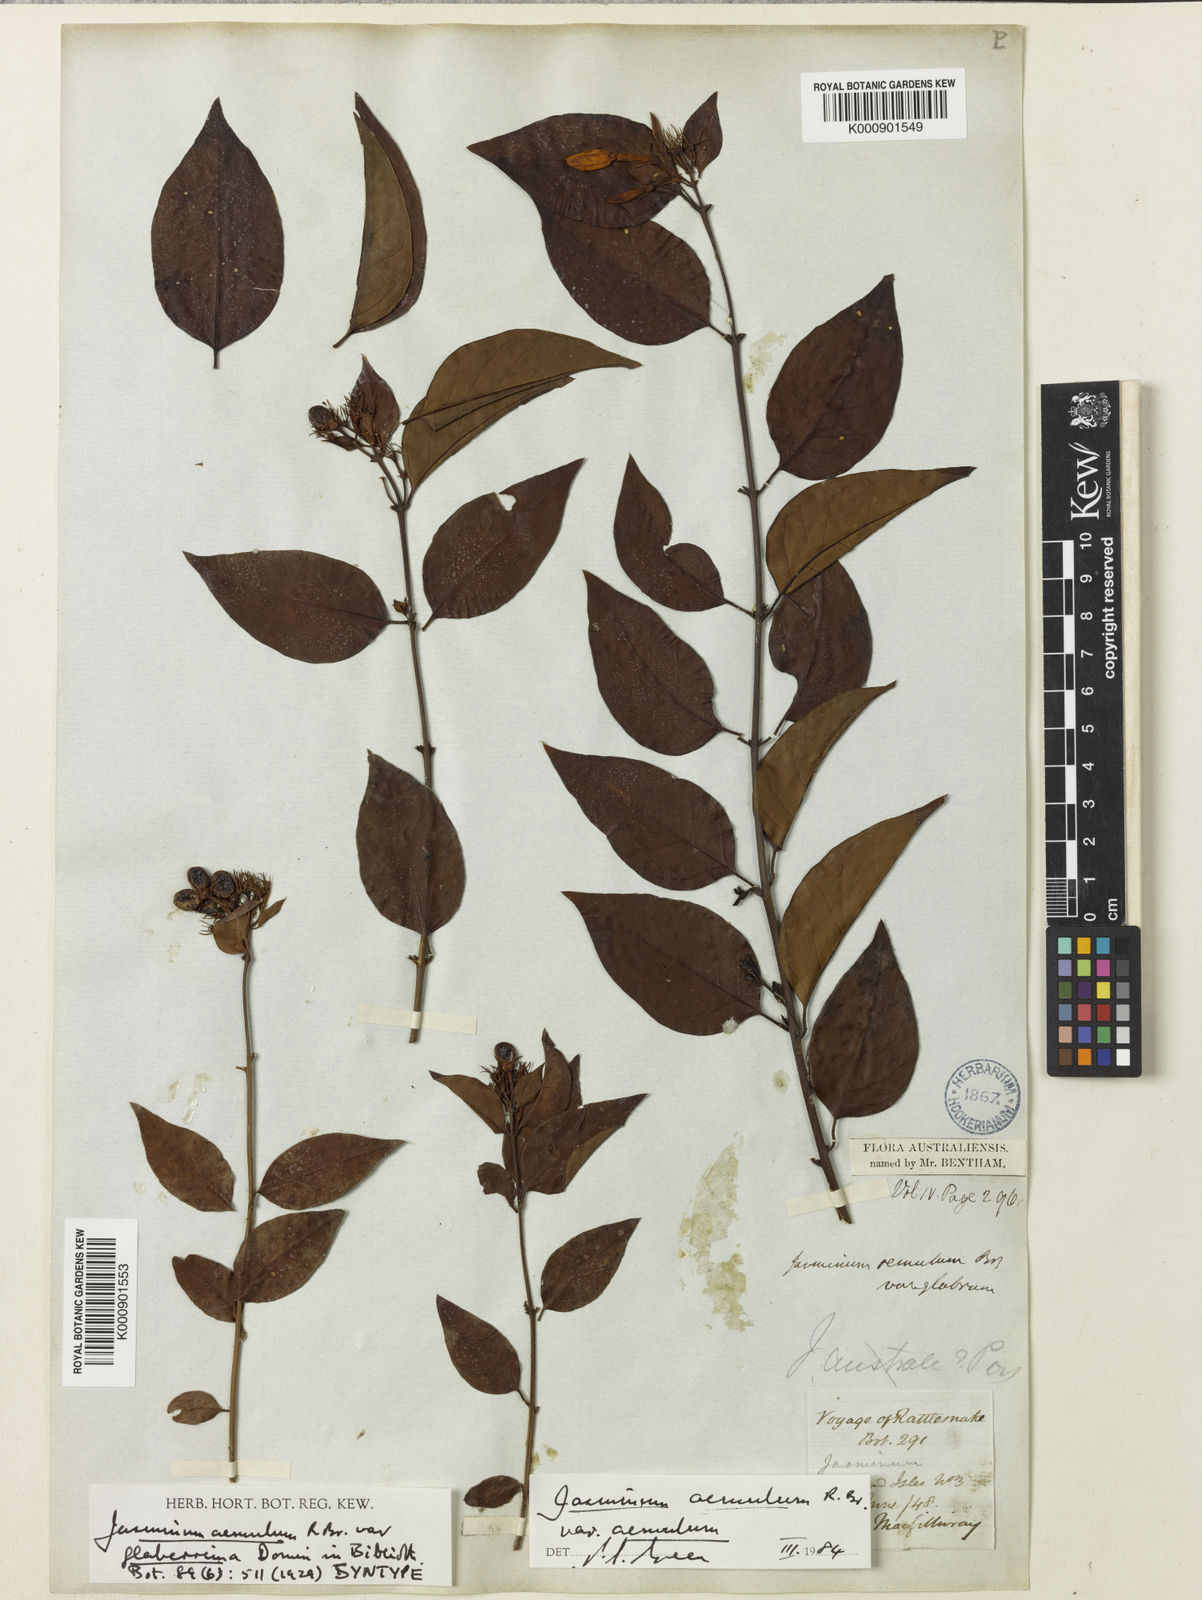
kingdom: Plantae
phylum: Tracheophyta
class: Magnoliopsida
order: Lamiales
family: Oleaceae
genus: Jasminum
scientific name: Jasminum
